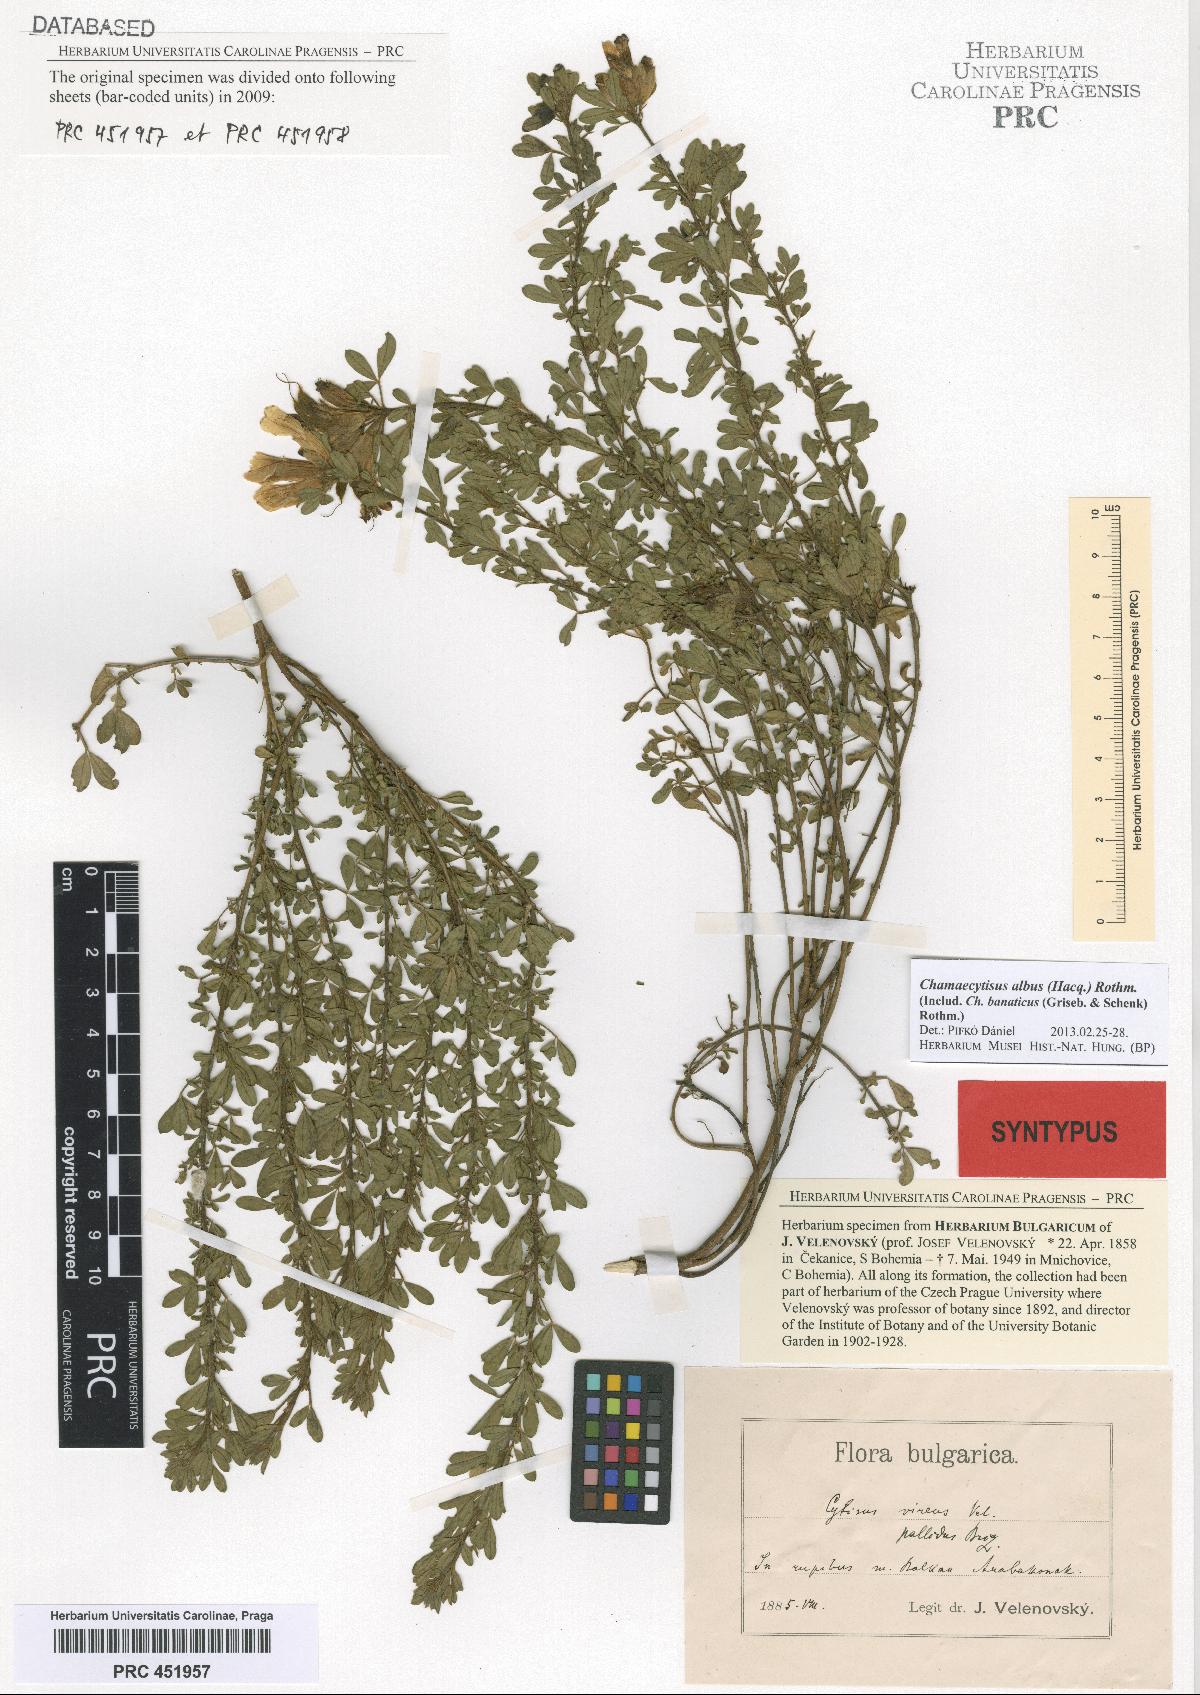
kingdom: Plantae
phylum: Tracheophyta
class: Magnoliopsida
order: Fabales
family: Fabaceae
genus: Chamaecytisus
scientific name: Chamaecytisus albus
